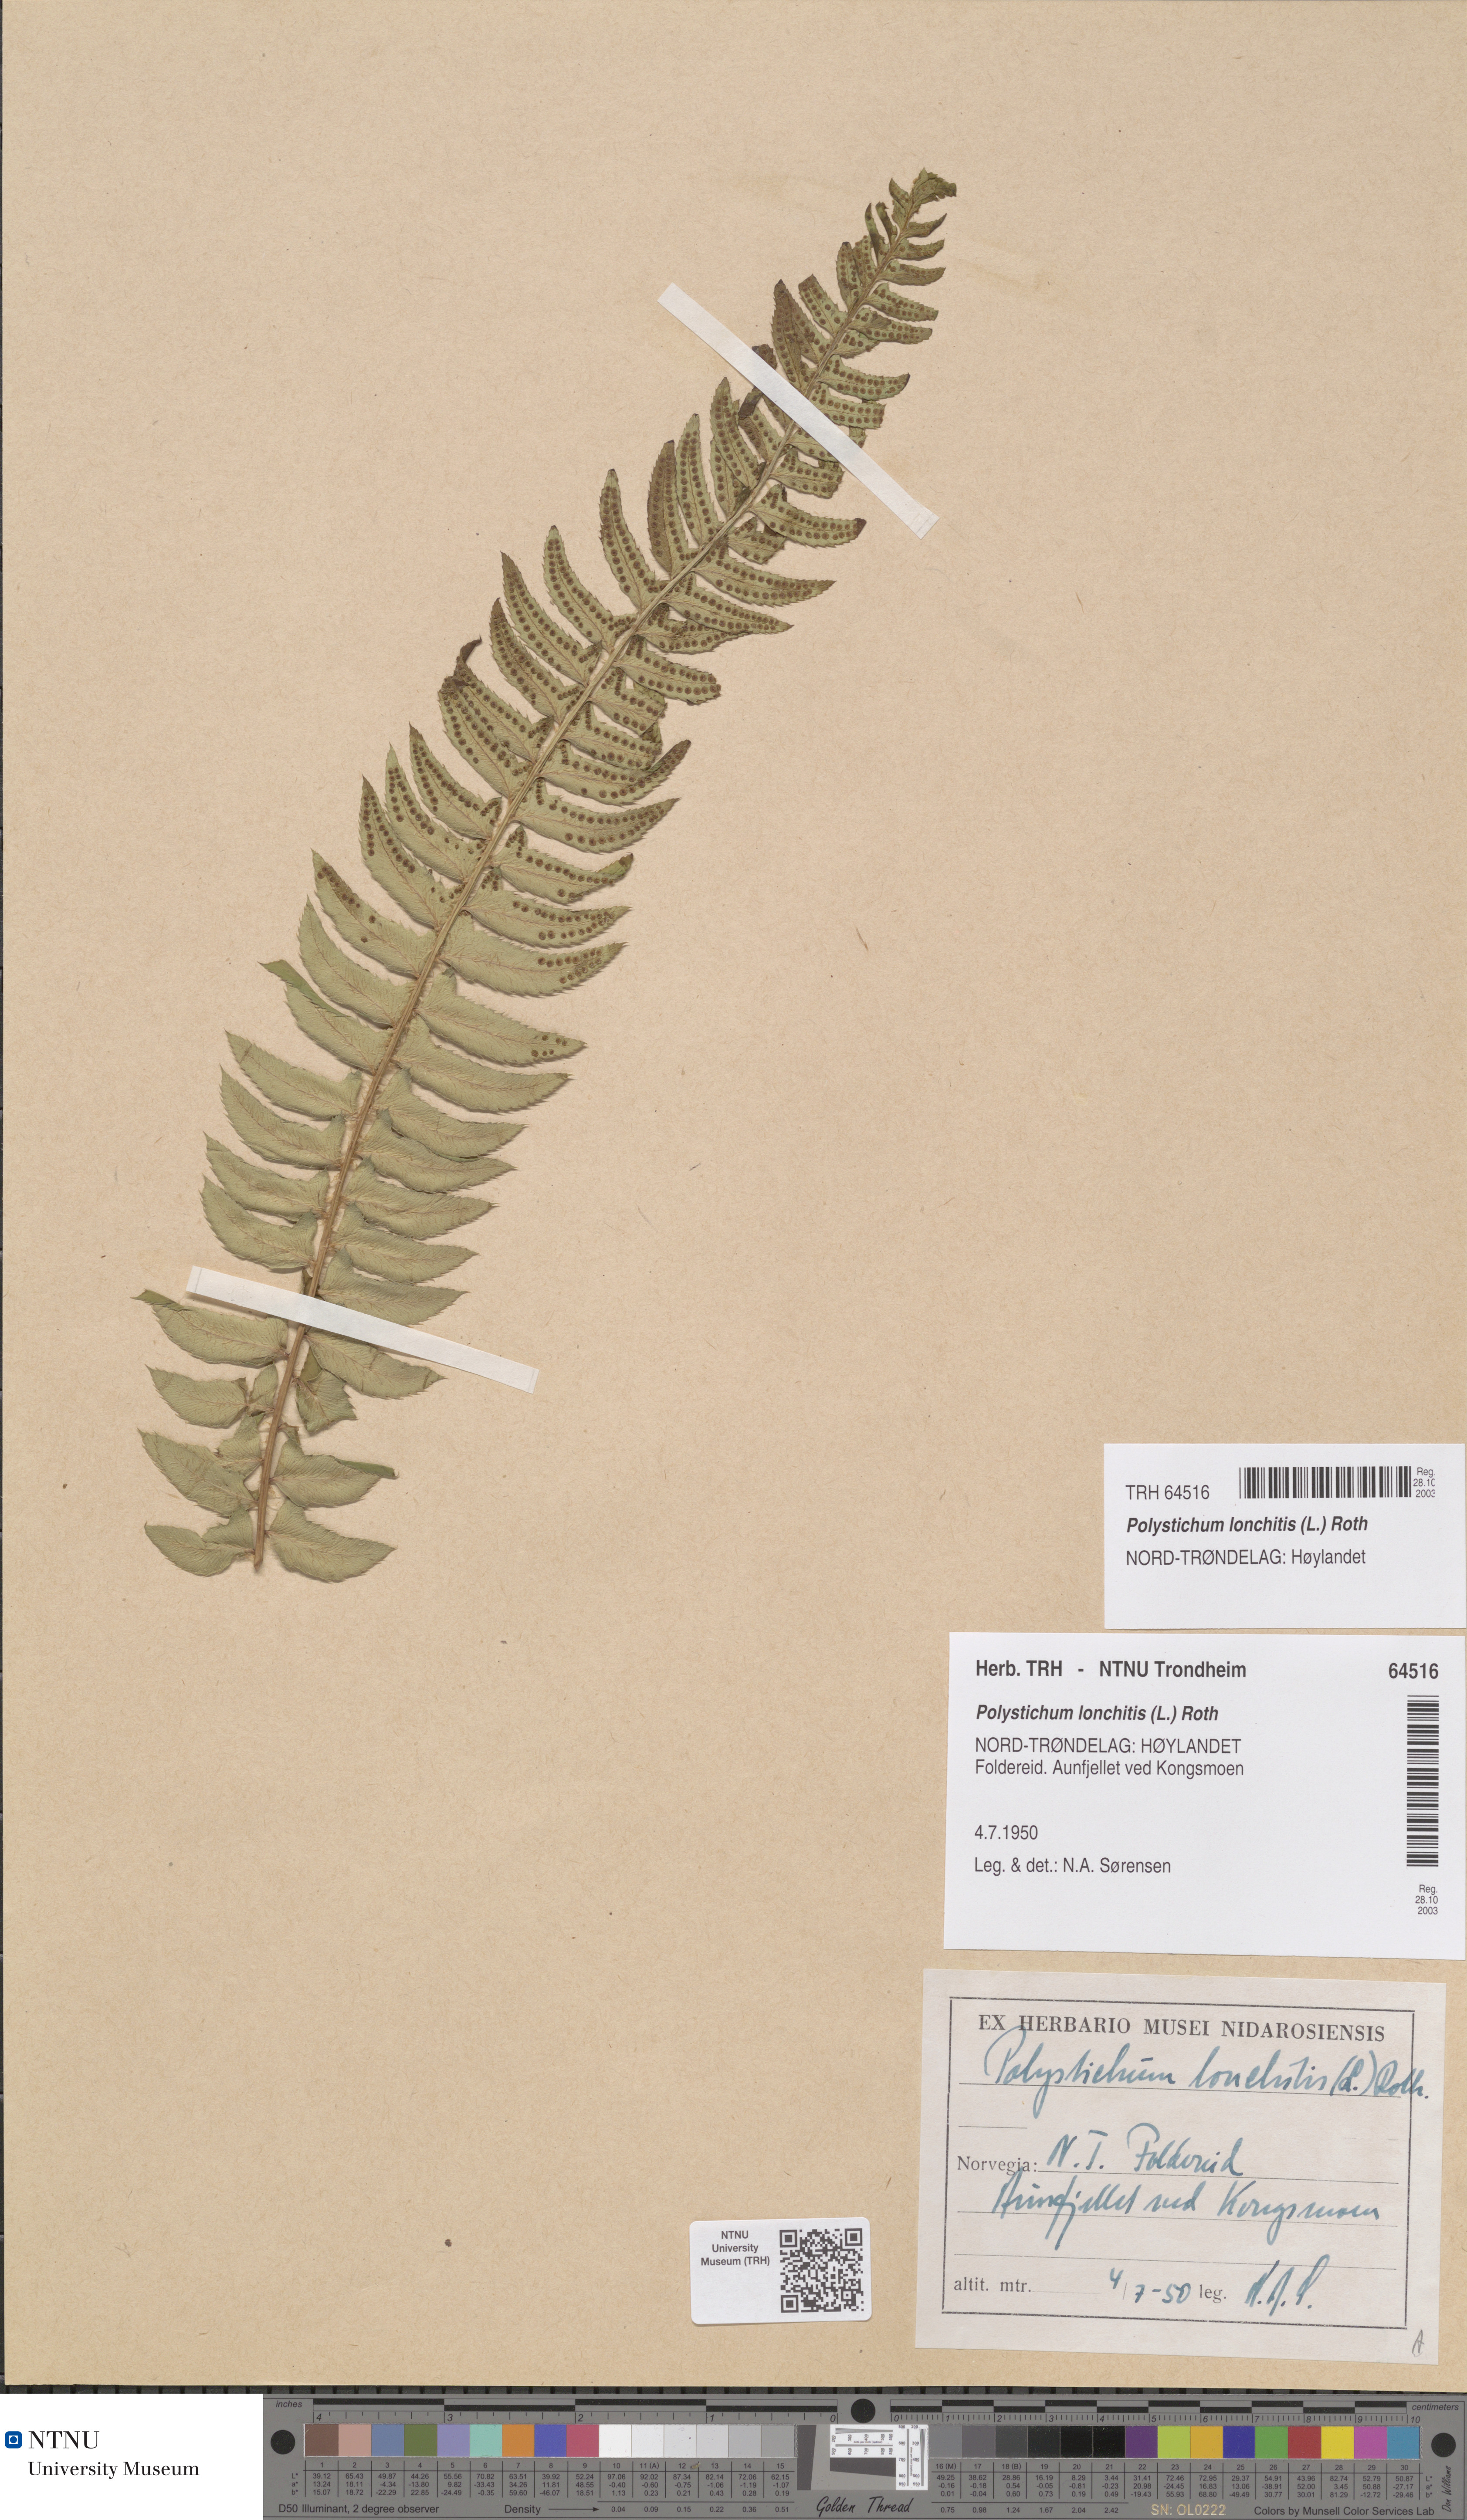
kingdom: Plantae
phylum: Tracheophyta
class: Polypodiopsida
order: Polypodiales
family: Dryopteridaceae
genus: Polystichum
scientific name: Polystichum lonchitis
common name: Holly fern
